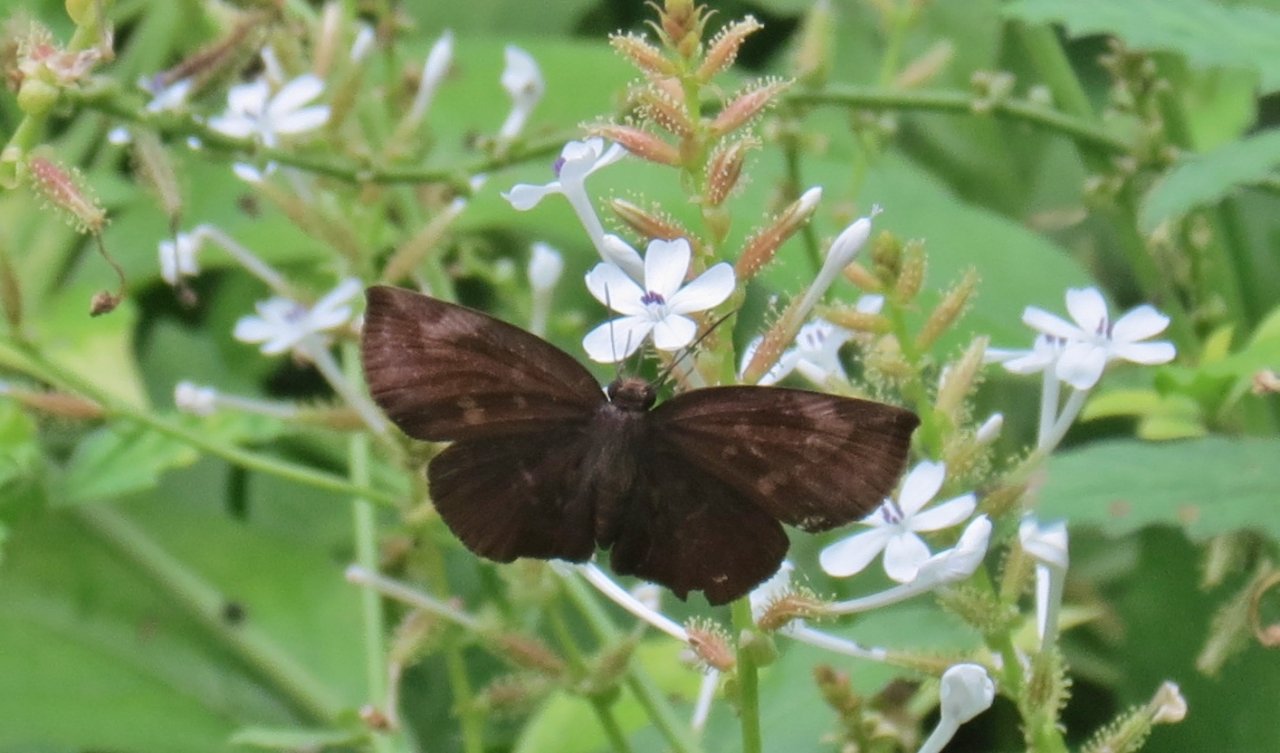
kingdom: Animalia
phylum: Arthropoda
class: Insecta
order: Lepidoptera
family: Hesperiidae
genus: Achlyodes
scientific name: Achlyodes thraso
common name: Sickle-winged Skipper
